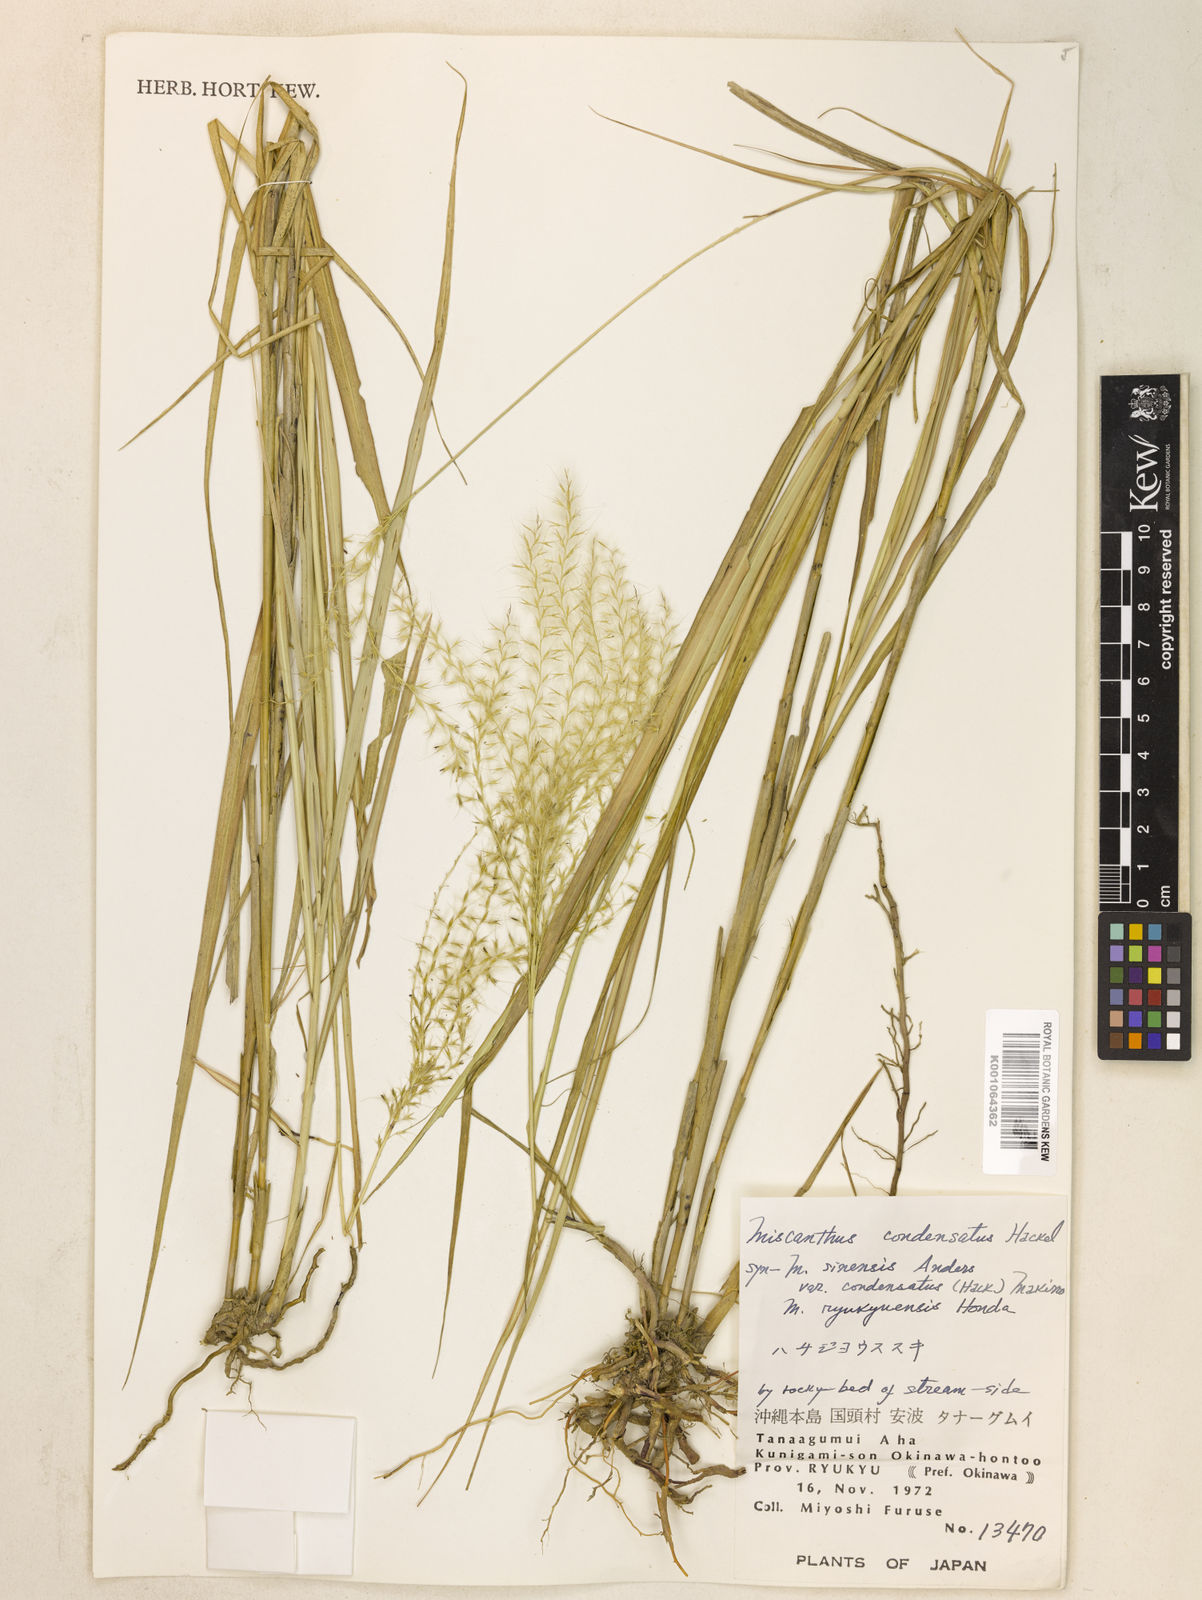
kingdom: Plantae
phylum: Tracheophyta
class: Liliopsida
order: Poales
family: Poaceae
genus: Miscanthus
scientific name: Miscanthus sinensis
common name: Chinese silvergrass
